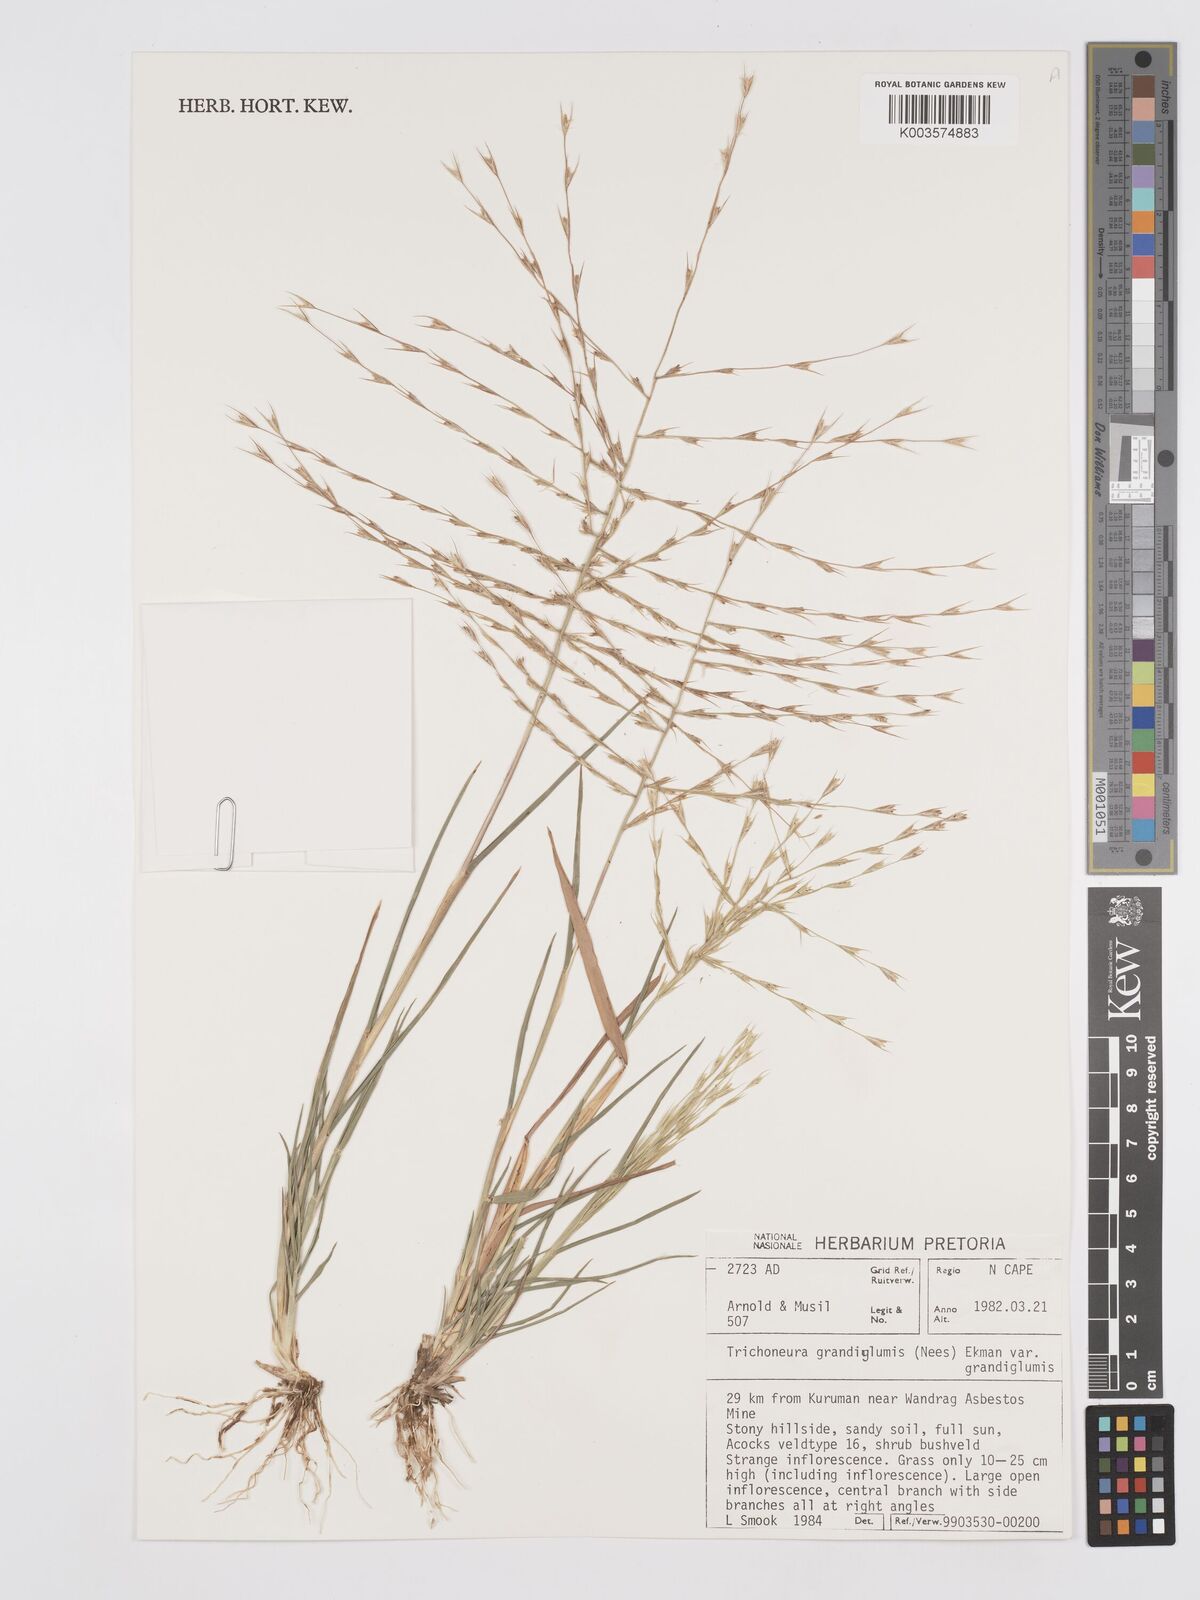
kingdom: Plantae
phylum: Tracheophyta
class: Liliopsida
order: Poales
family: Poaceae
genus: Trichoneura
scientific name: Trichoneura grandiglumis
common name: Rolling grass
